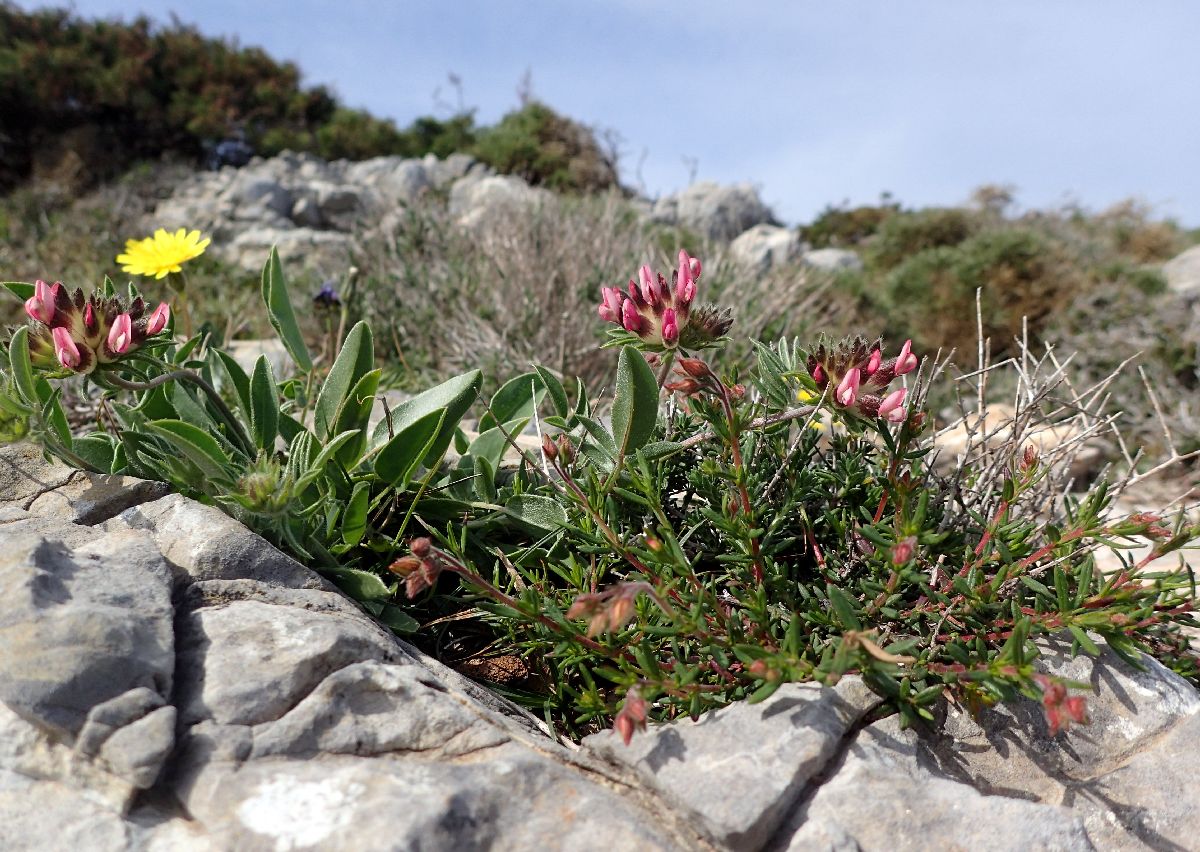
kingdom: Plantae
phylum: Tracheophyta
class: Magnoliopsida
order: Fabales
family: Fabaceae
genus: Anthyllis
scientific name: Anthyllis vulneraria
